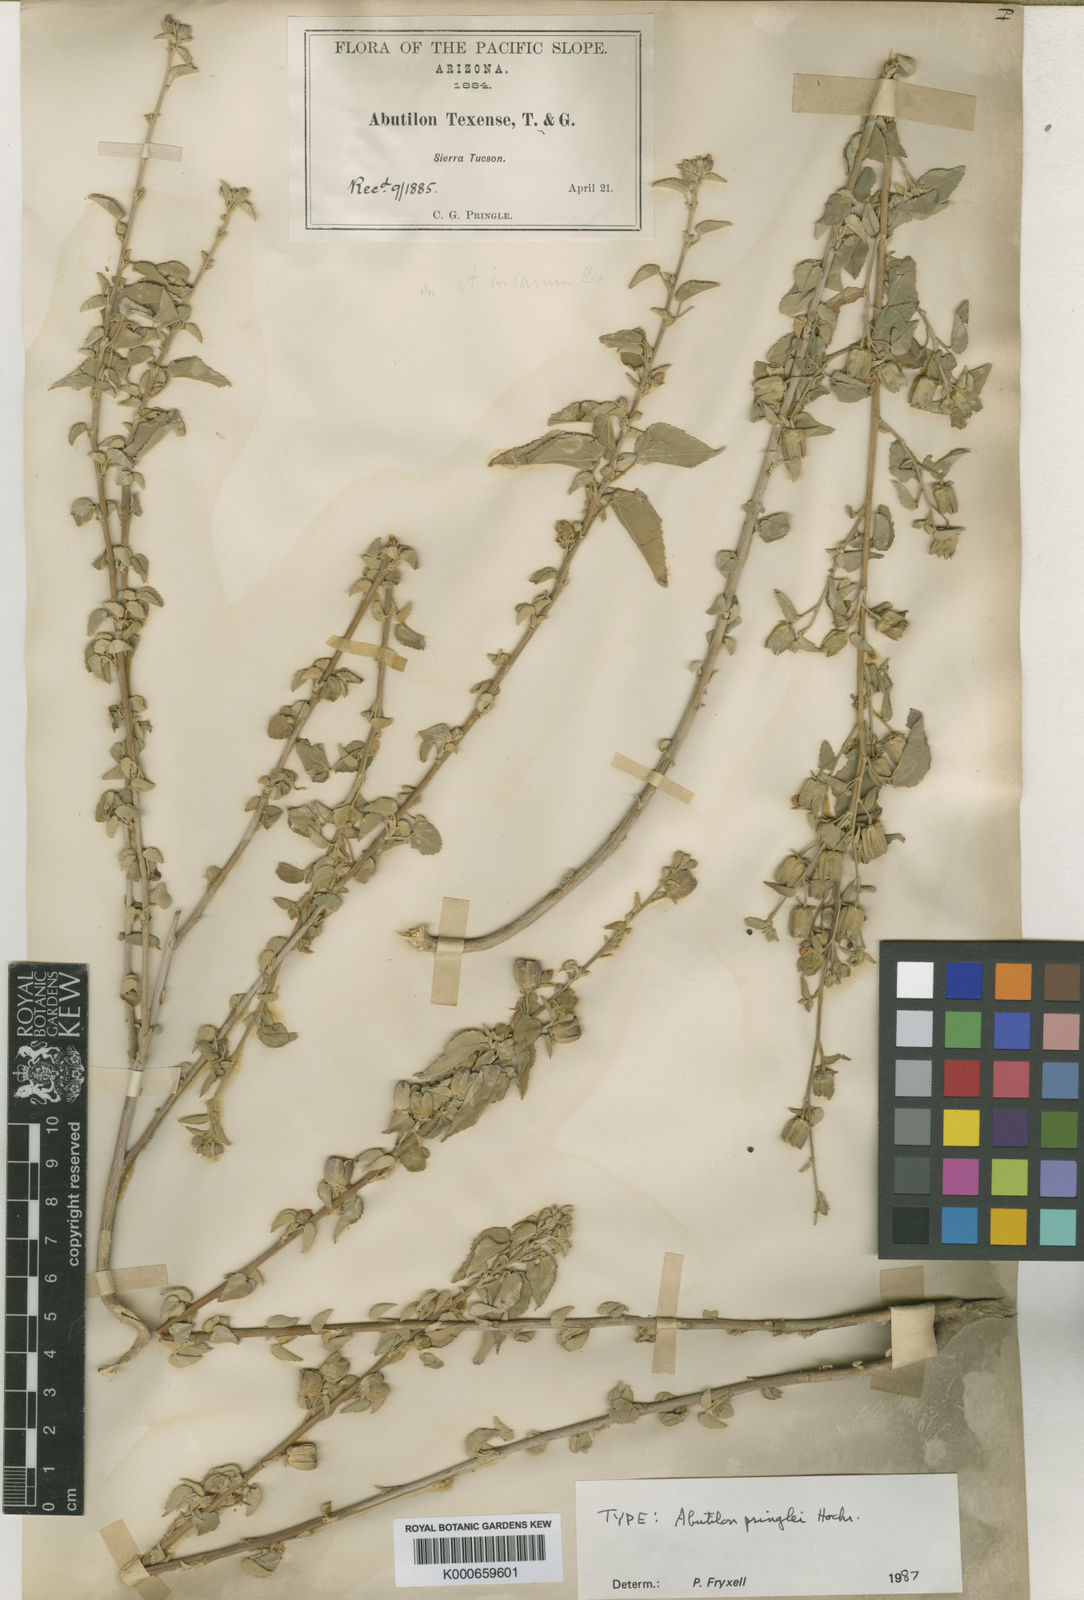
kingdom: Plantae
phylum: Tracheophyta
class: Magnoliopsida
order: Malvales
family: Malvaceae
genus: Abutilon
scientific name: Abutilon incanum
